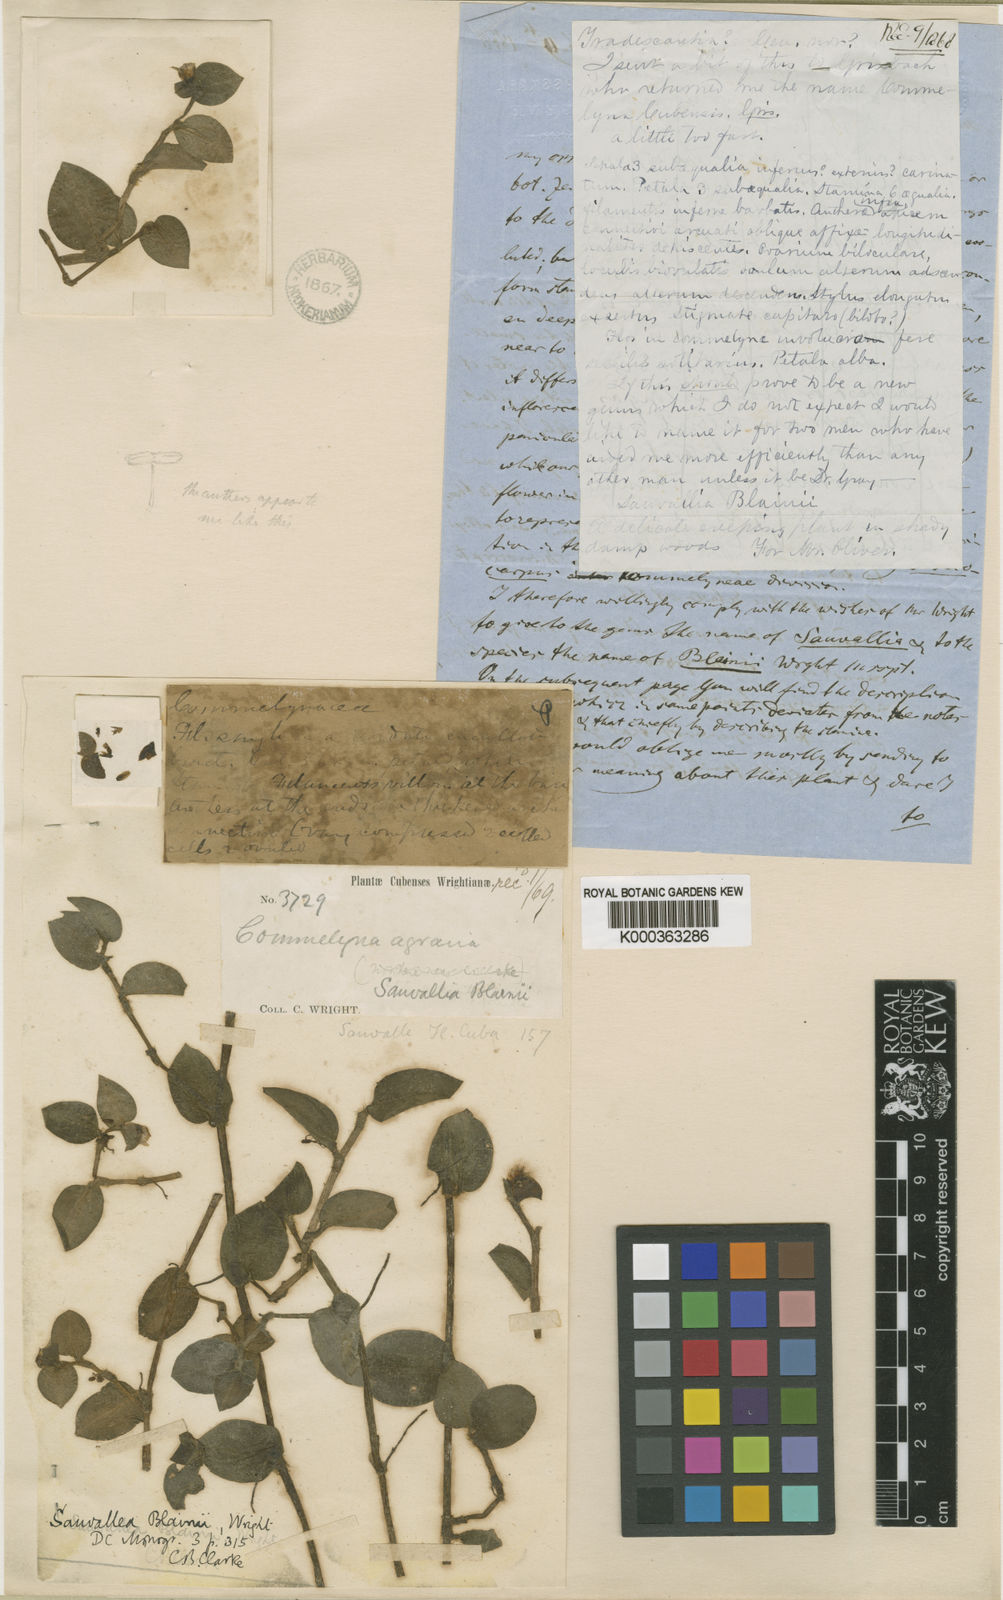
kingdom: Plantae
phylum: Tracheophyta
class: Liliopsida
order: Commelinales
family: Commelinaceae
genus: Sauvallia
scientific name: Sauvallia blainii
